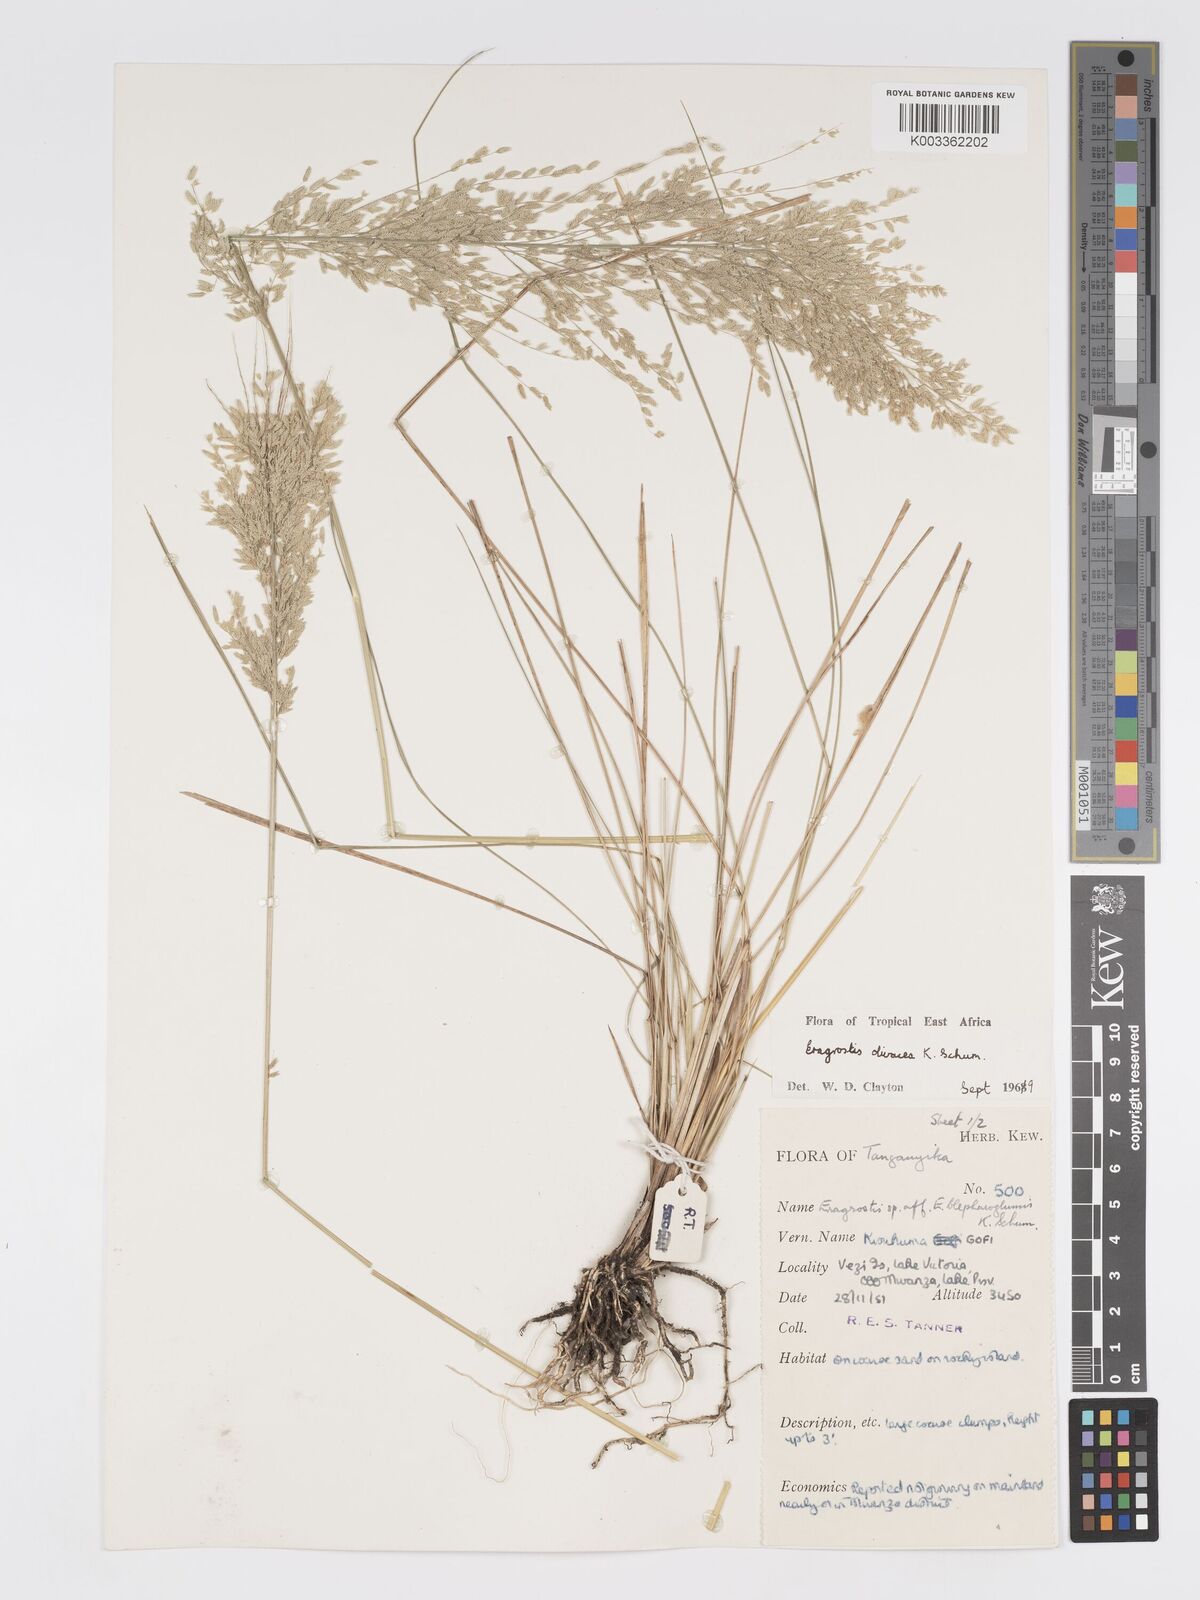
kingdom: Plantae
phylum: Tracheophyta
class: Liliopsida
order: Poales
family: Poaceae
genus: Eragrostis
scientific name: Eragrostis olivacea
